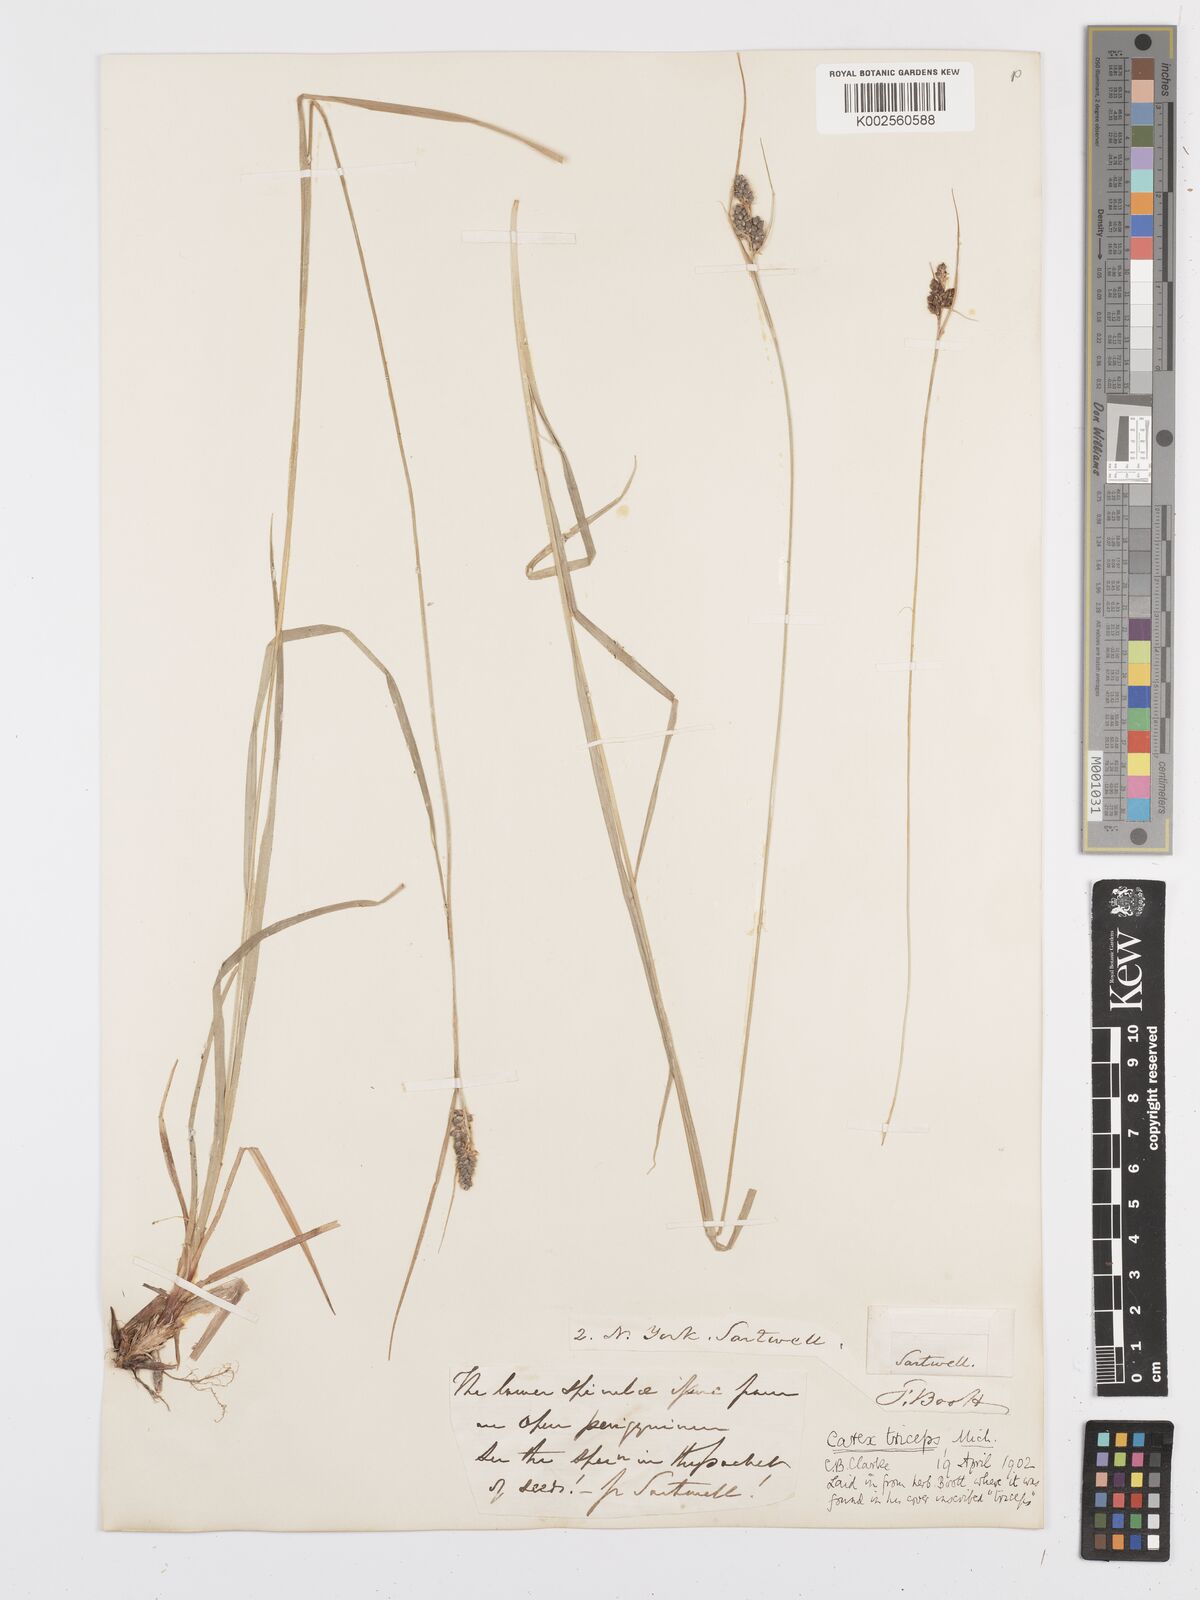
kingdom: Plantae
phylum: Tracheophyta
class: Liliopsida
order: Poales
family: Cyperaceae
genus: Carex
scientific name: Carex complanata
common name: Hirsute sedge
